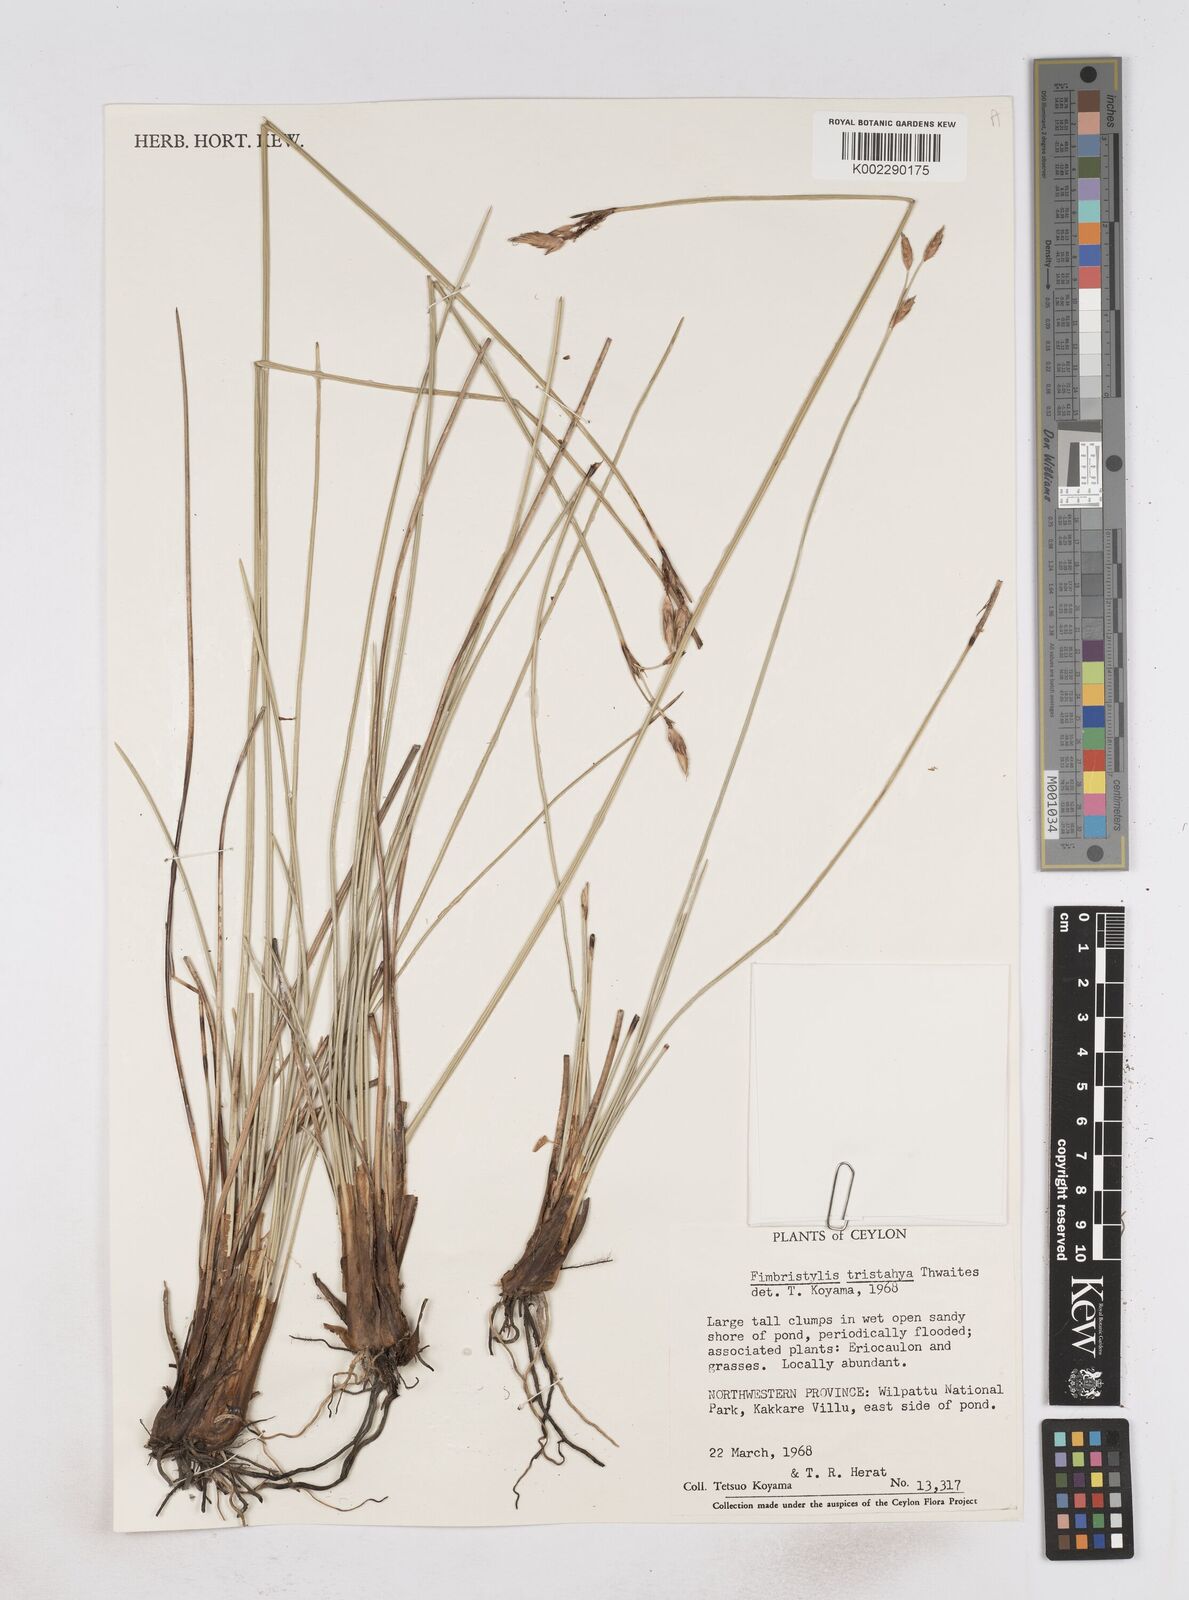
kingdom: Plantae
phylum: Tracheophyta
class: Liliopsida
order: Poales
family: Cyperaceae
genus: Fimbristylis
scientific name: Fimbristylis tristachya
